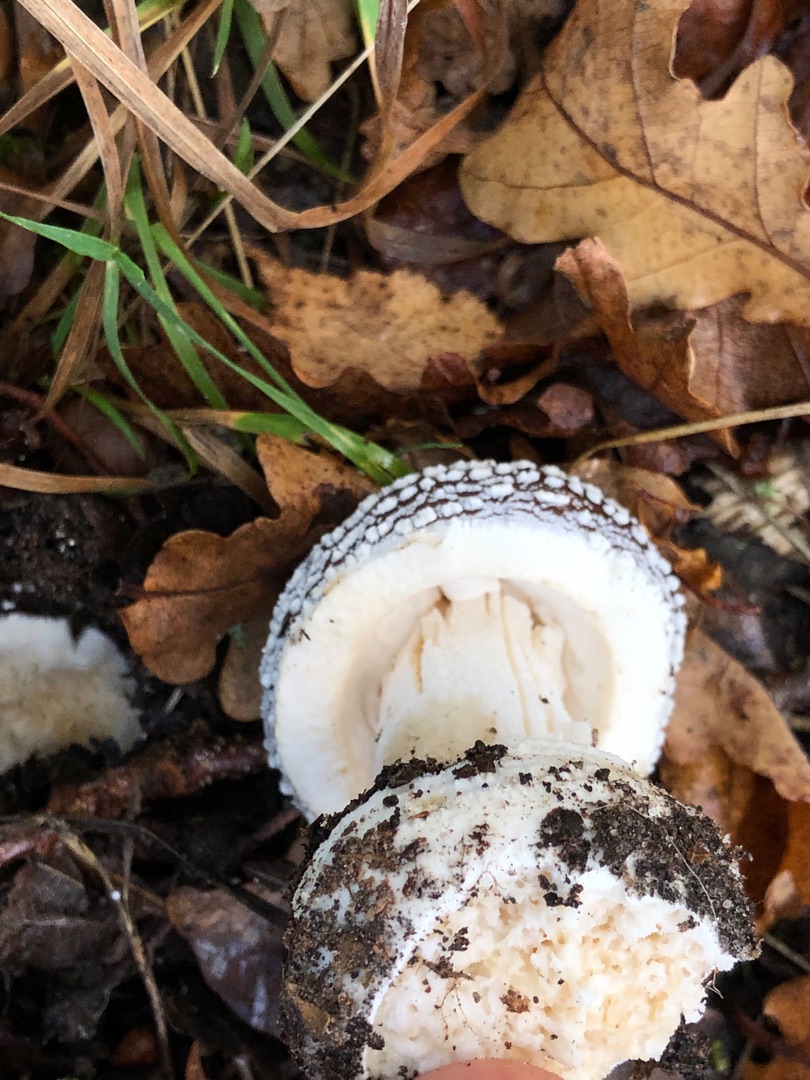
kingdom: Fungi
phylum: Basidiomycota
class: Agaricomycetes
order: Agaricales
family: Amanitaceae
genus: Amanita
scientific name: Amanita pantherina
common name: Panter-fluesvamp
